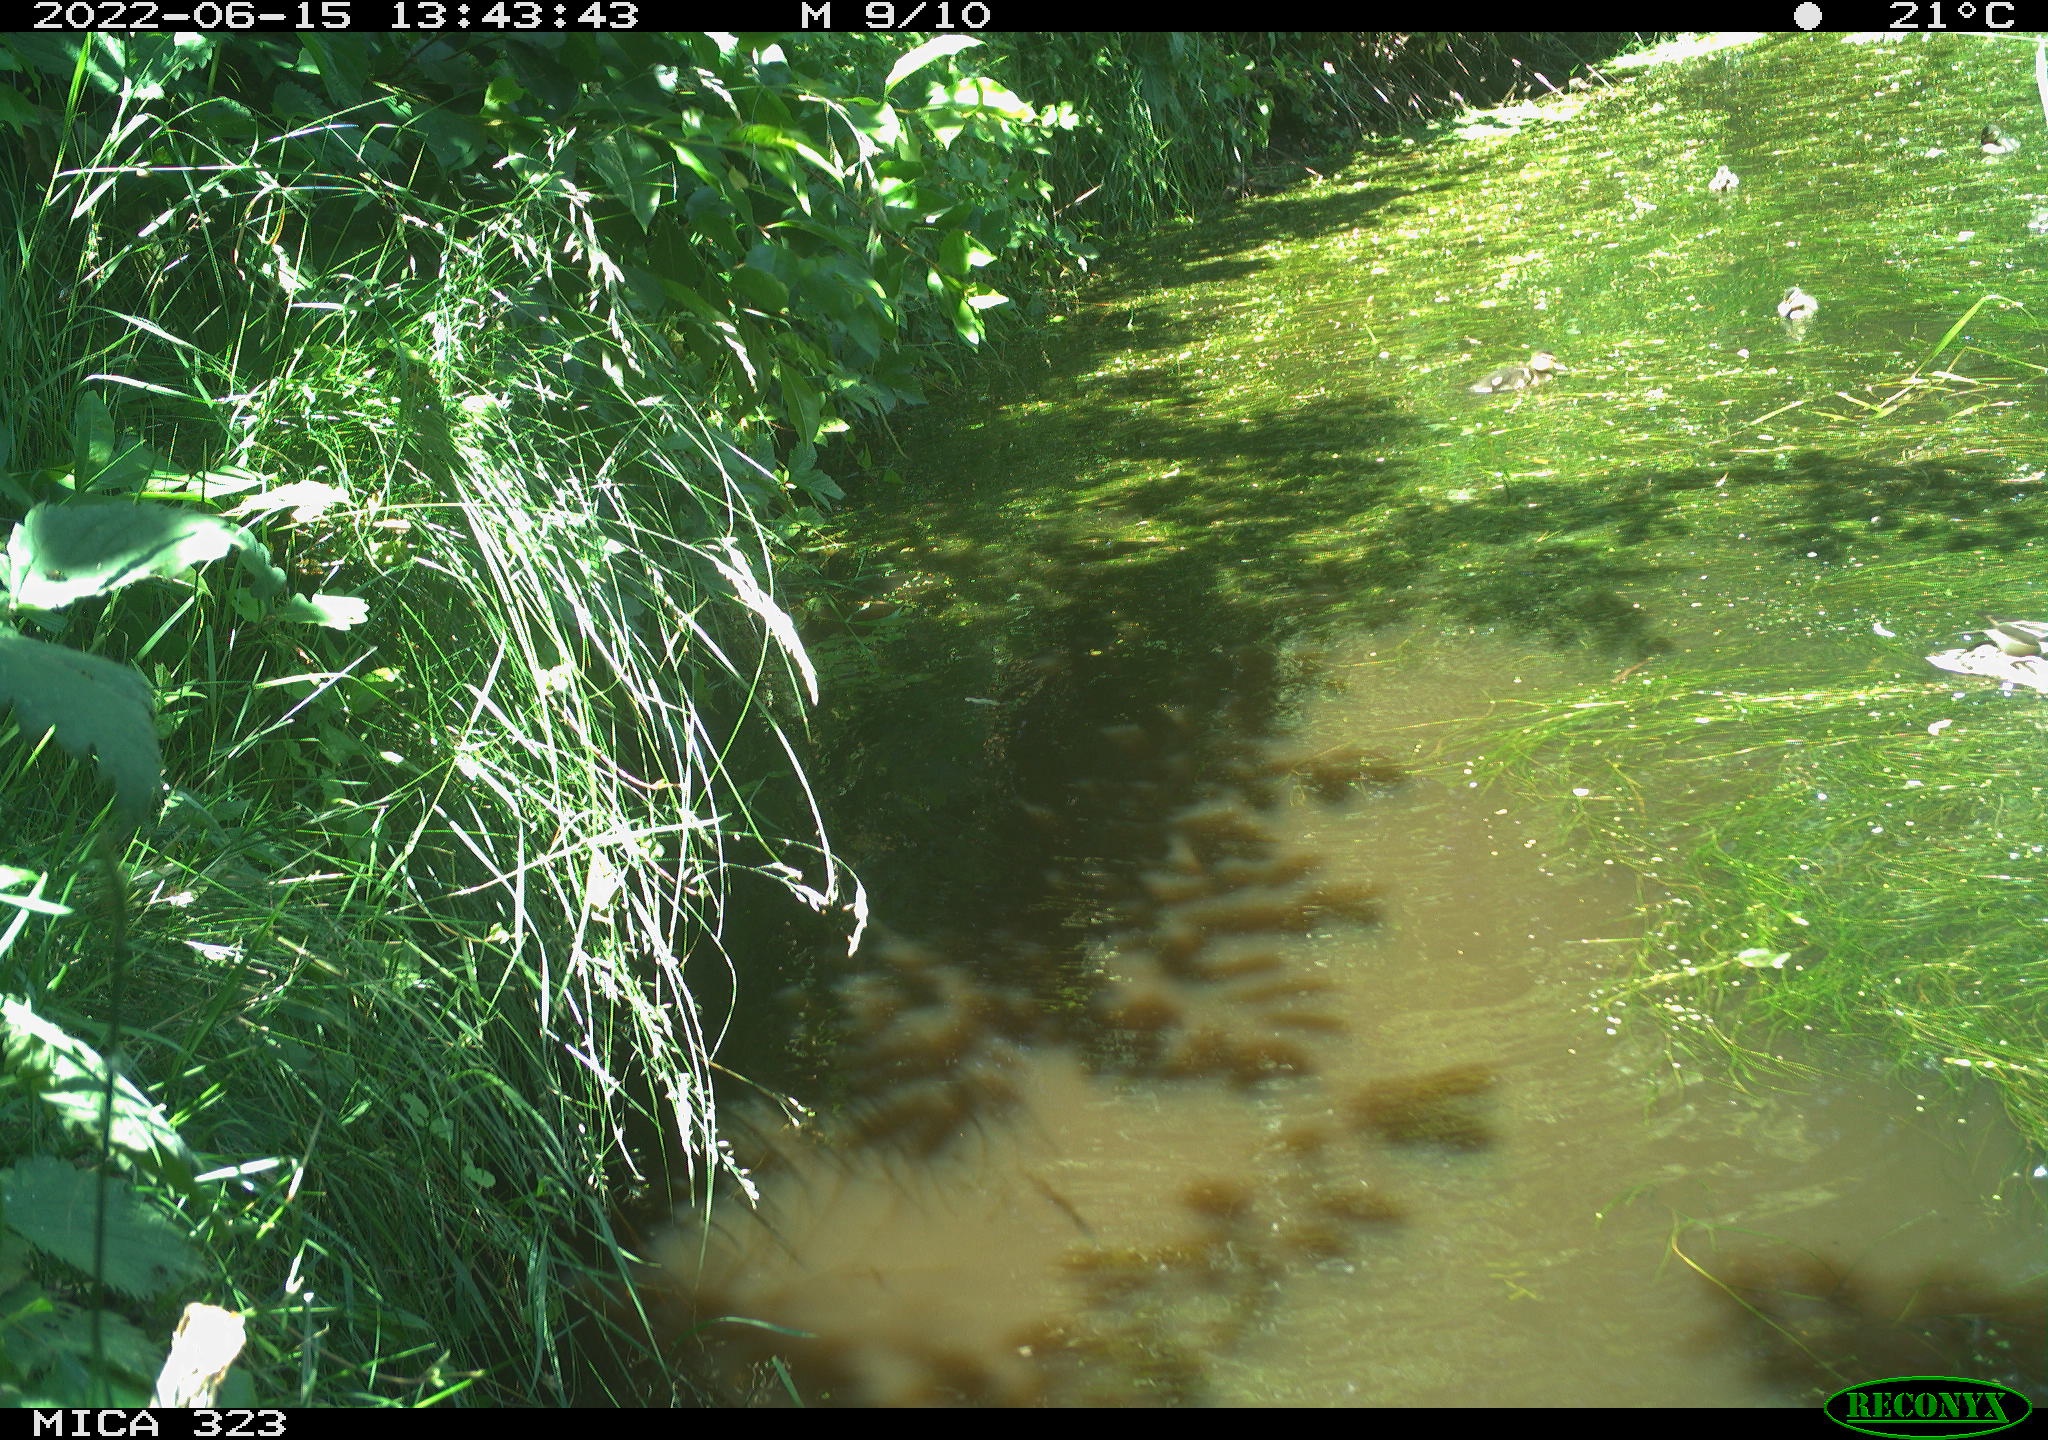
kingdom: Animalia
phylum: Chordata
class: Aves
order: Anseriformes
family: Anatidae
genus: Anas
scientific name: Anas platyrhynchos
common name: Mallard
